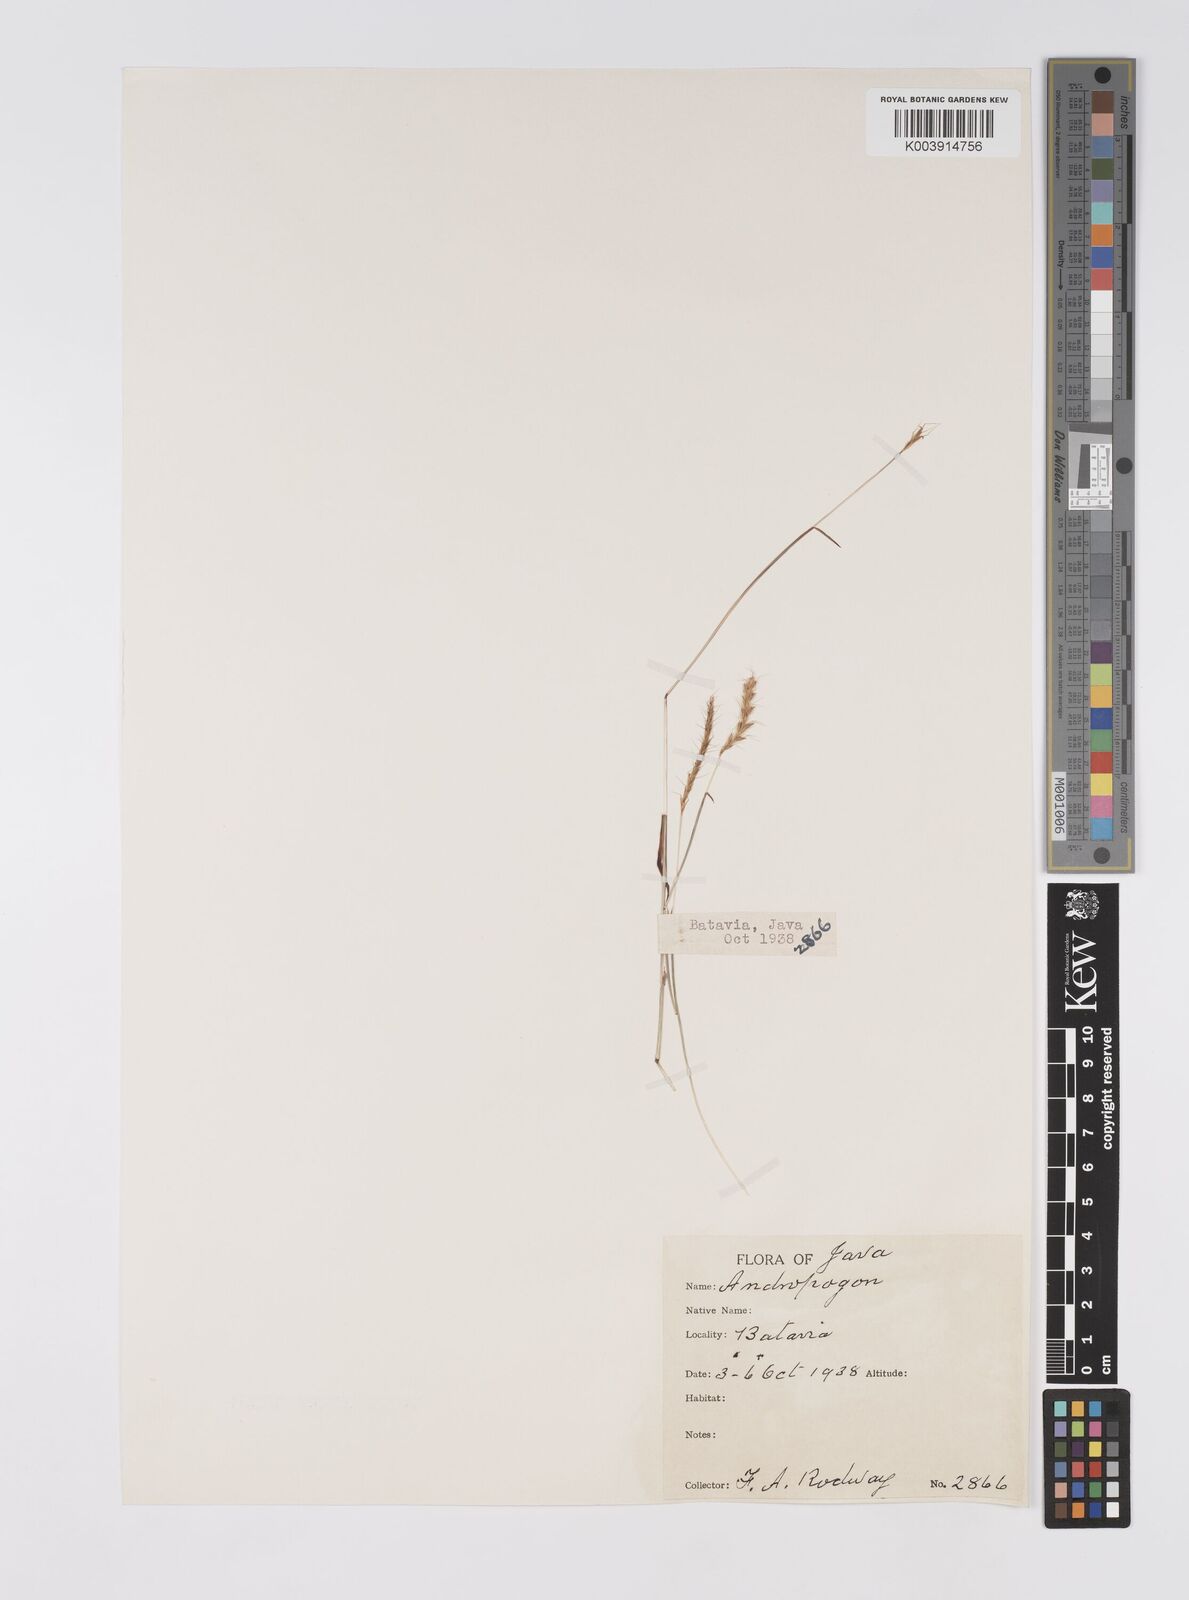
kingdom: Plantae
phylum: Tracheophyta
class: Liliopsida
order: Poales
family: Poaceae
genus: Polytrias
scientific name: Polytrias
